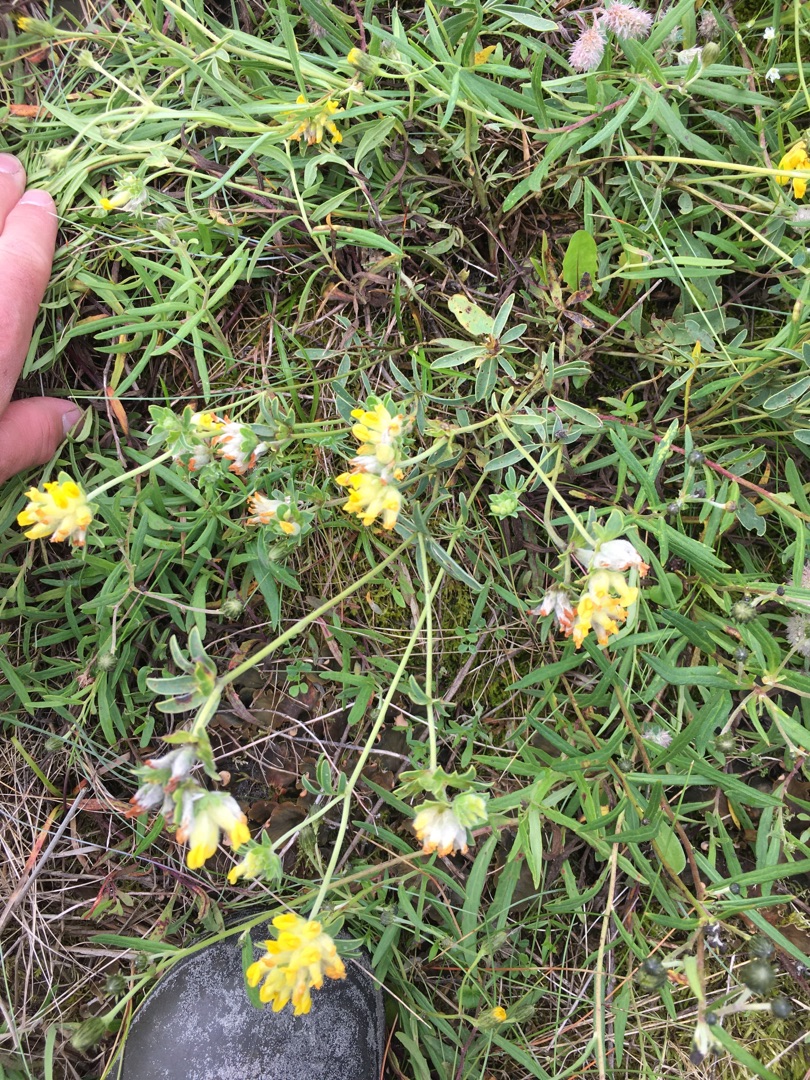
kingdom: Plantae
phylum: Tracheophyta
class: Magnoliopsida
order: Fabales
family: Fabaceae
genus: Anthyllis
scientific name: Anthyllis vulneraria
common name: Rundbælg
